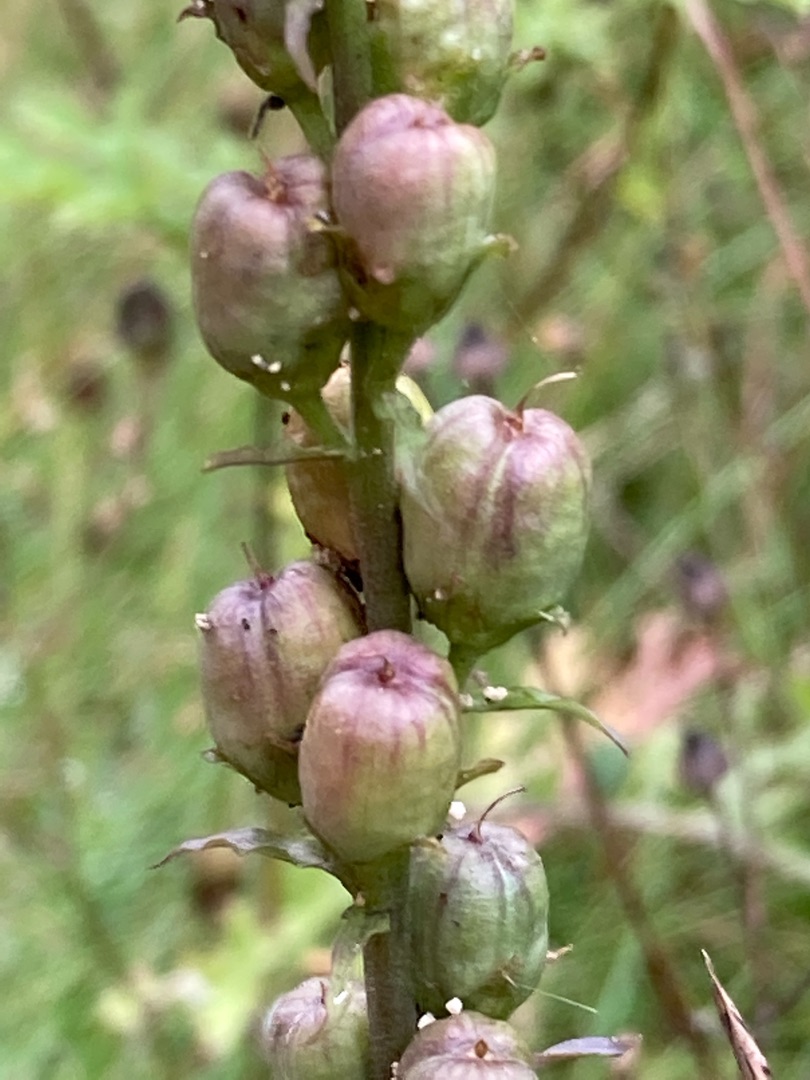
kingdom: Plantae
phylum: Tracheophyta
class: Magnoliopsida
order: Lamiales
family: Plantaginaceae
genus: Linaria
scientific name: Linaria vulgaris
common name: Almindelig torskemund
